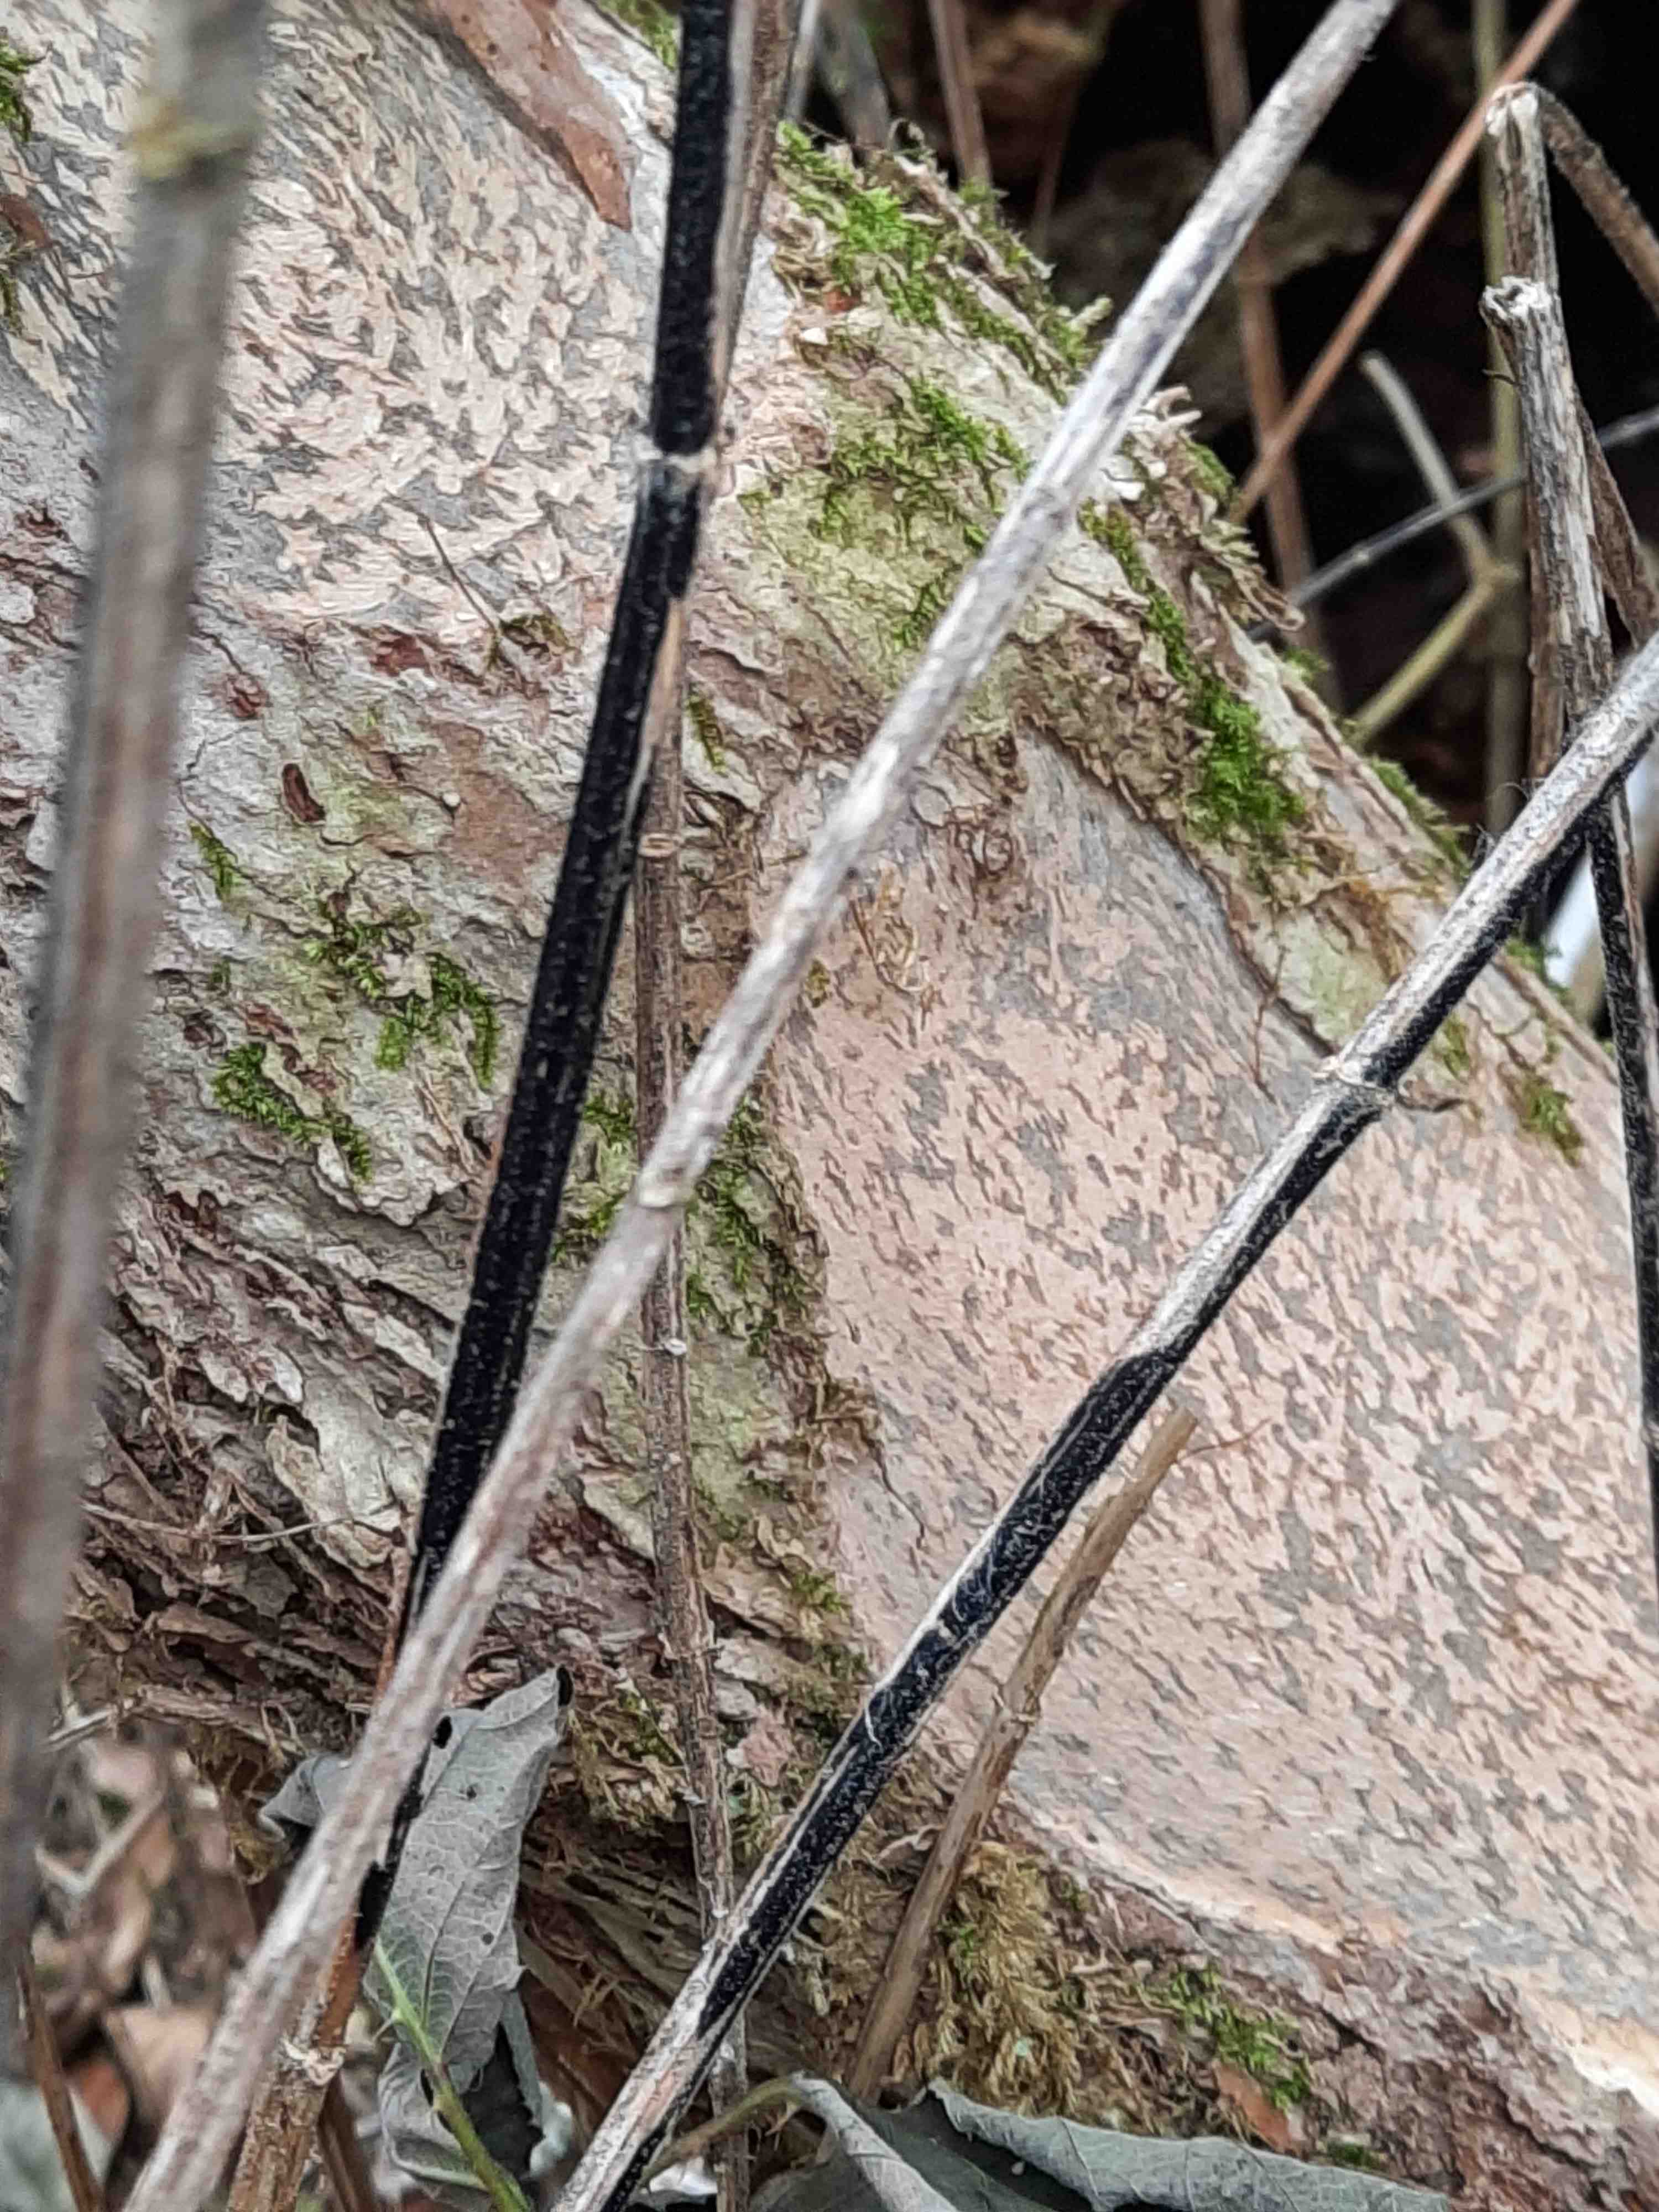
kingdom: Fungi
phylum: Ascomycota
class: Sordariomycetes
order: Diaporthales
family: Diaporthaceae
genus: Diaporthopsis
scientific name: Diaporthopsis urticae
